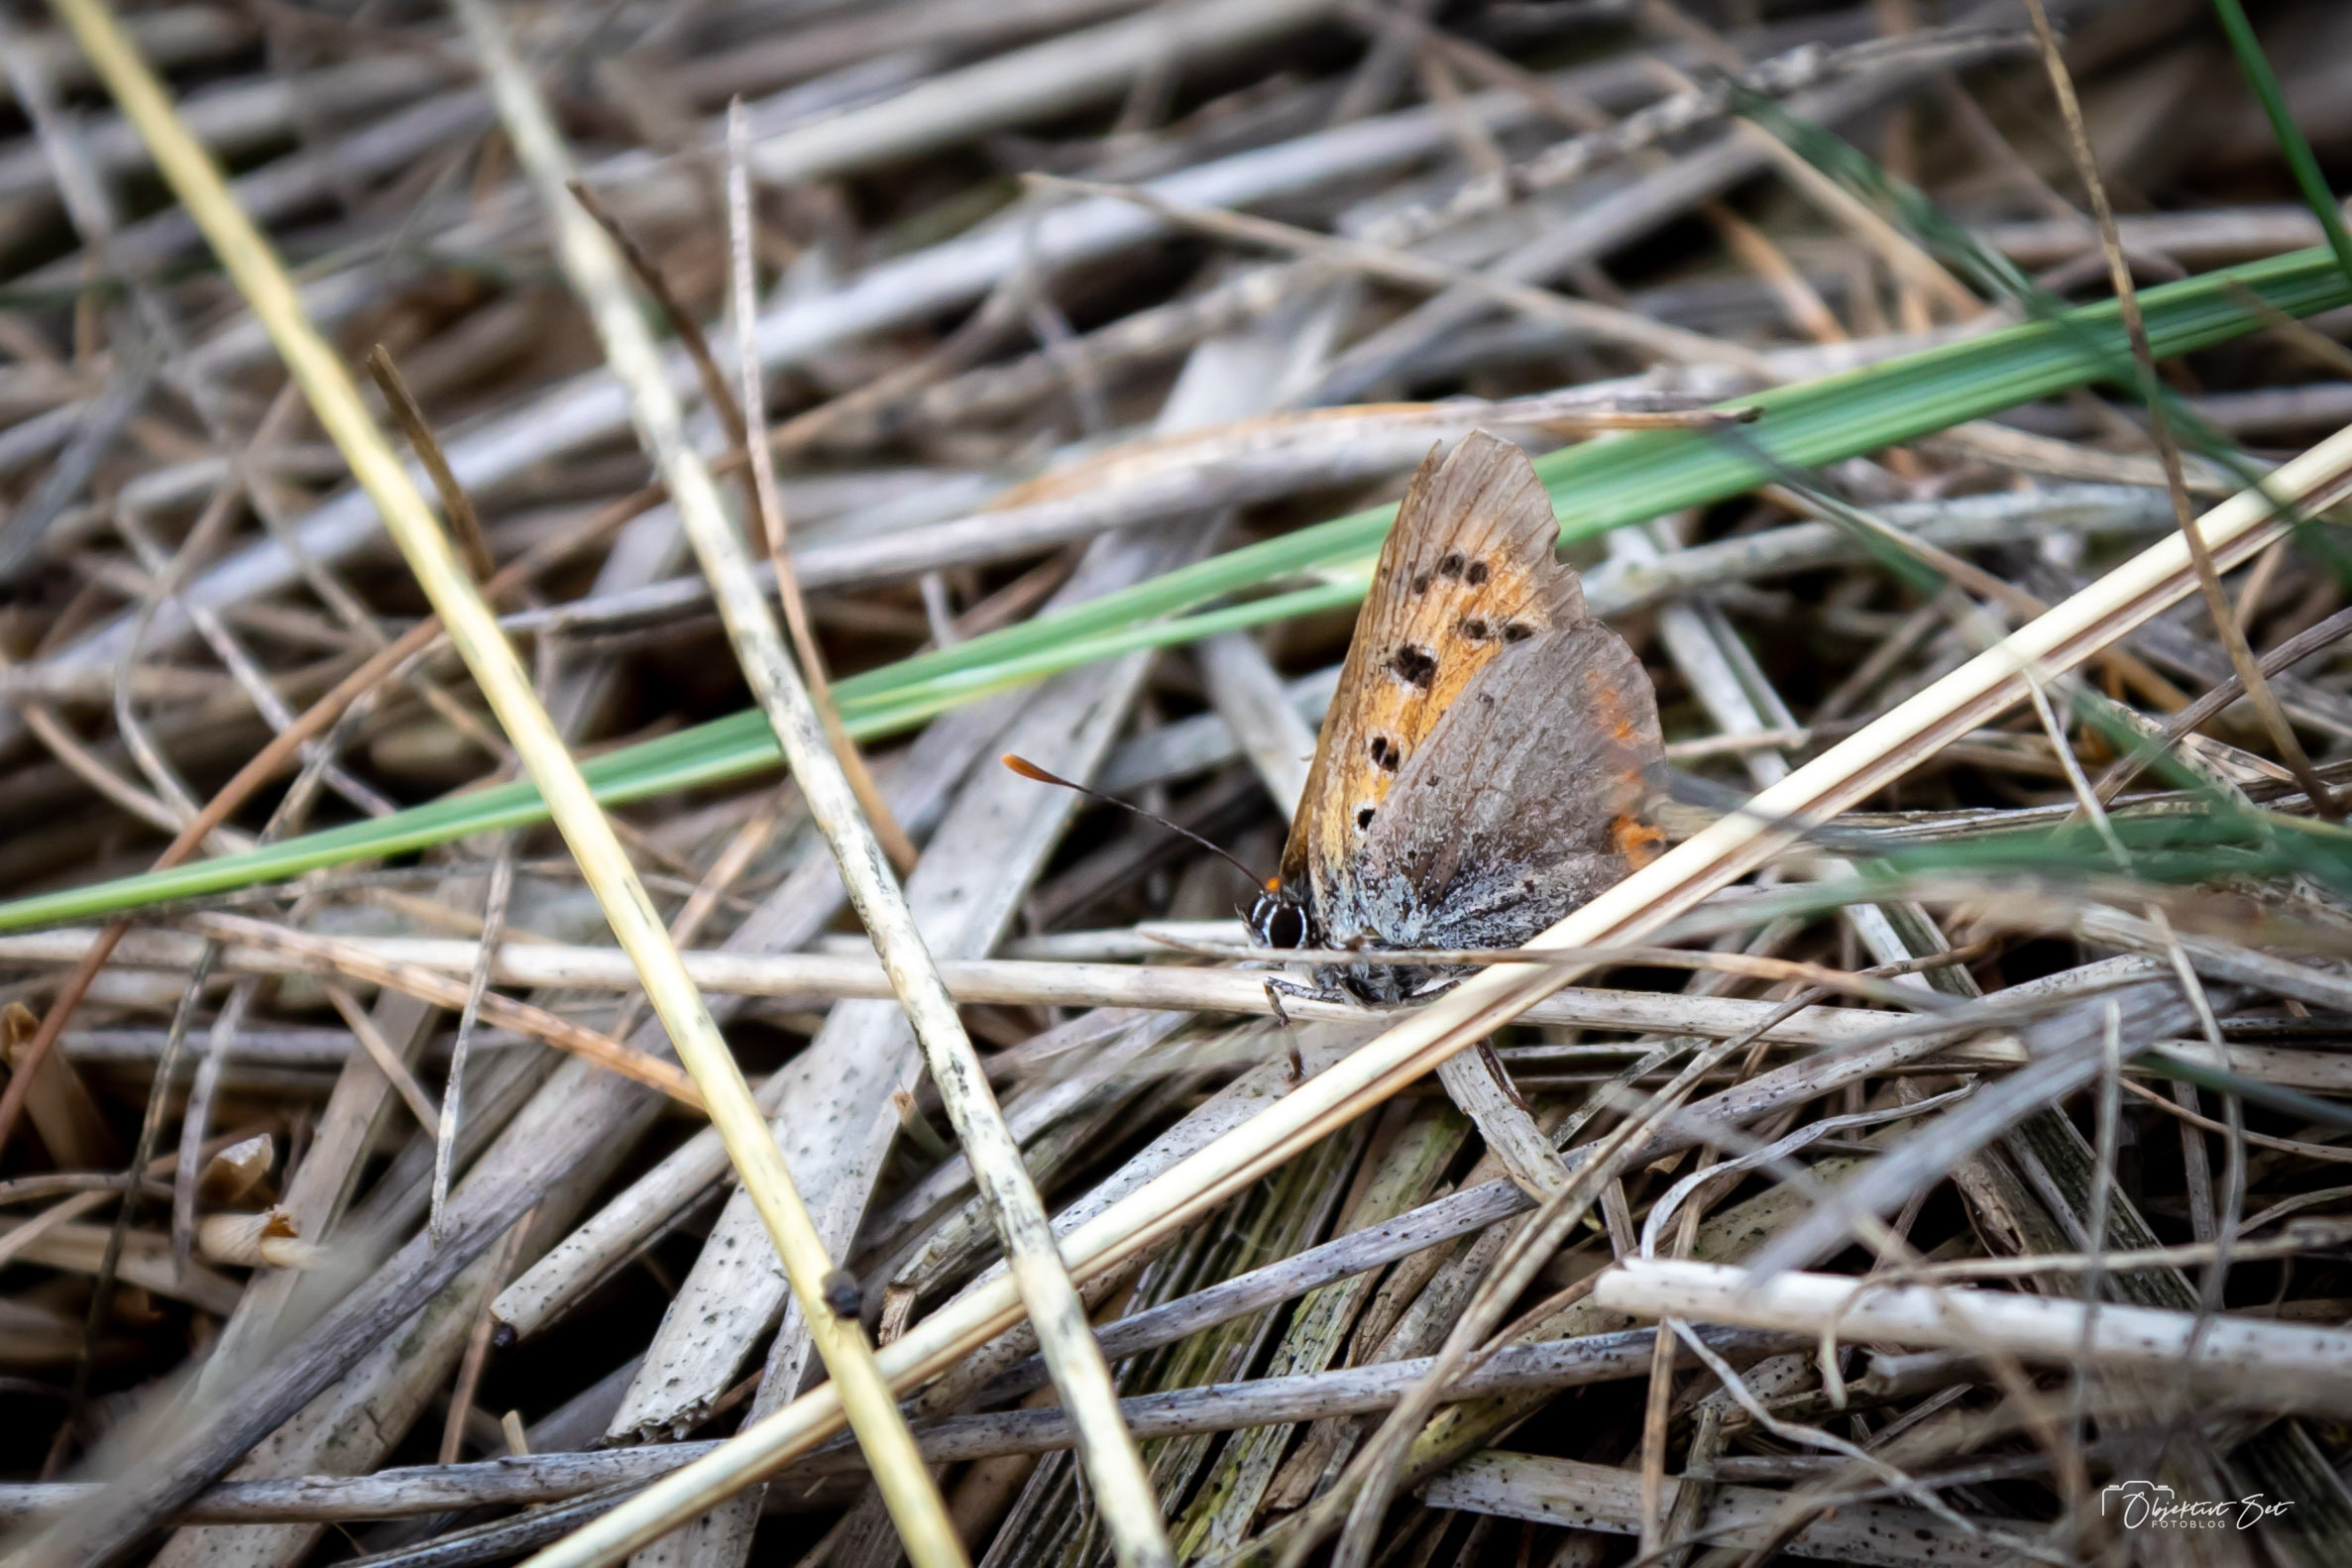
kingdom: Animalia
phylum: Arthropoda
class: Insecta
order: Lepidoptera
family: Lycaenidae
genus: Lycaena
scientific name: Lycaena phlaeas
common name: Lille ildfugl
